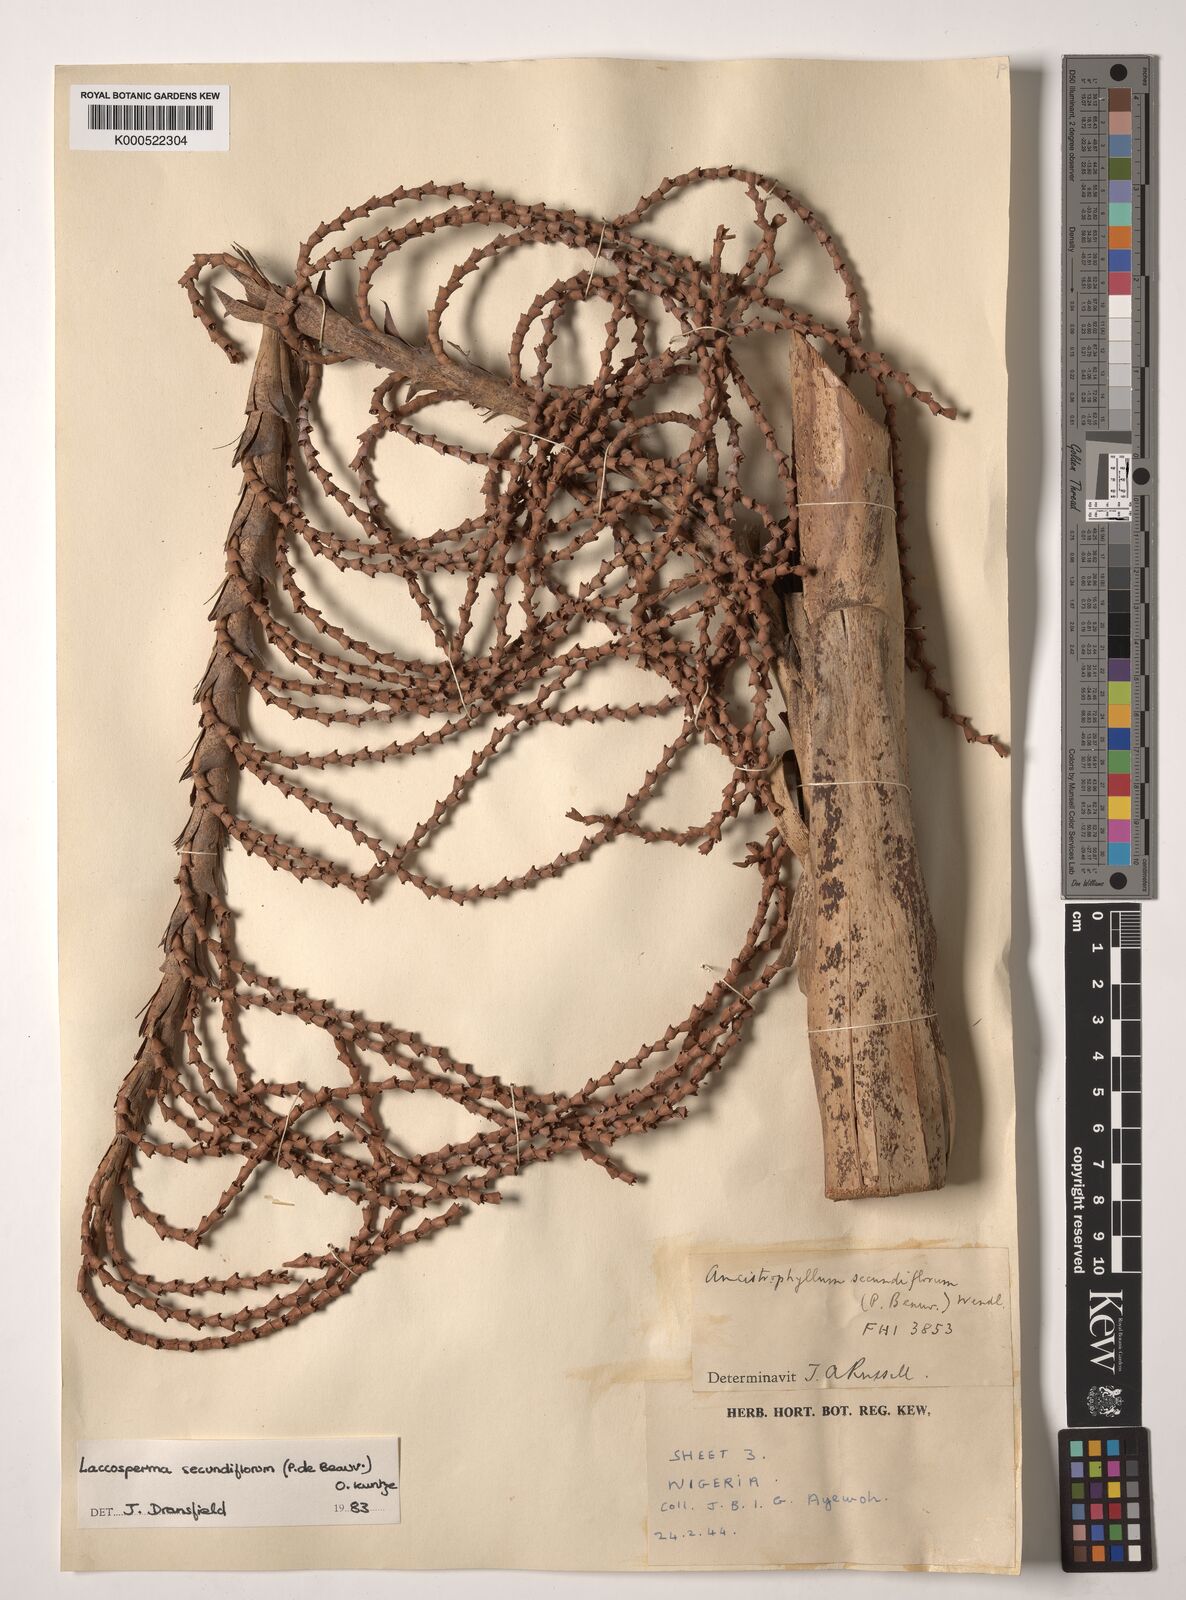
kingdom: Plantae
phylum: Tracheophyta
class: Liliopsida
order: Arecales
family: Arecaceae
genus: Laccosperma
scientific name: Laccosperma secundiflorum
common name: Rattan
